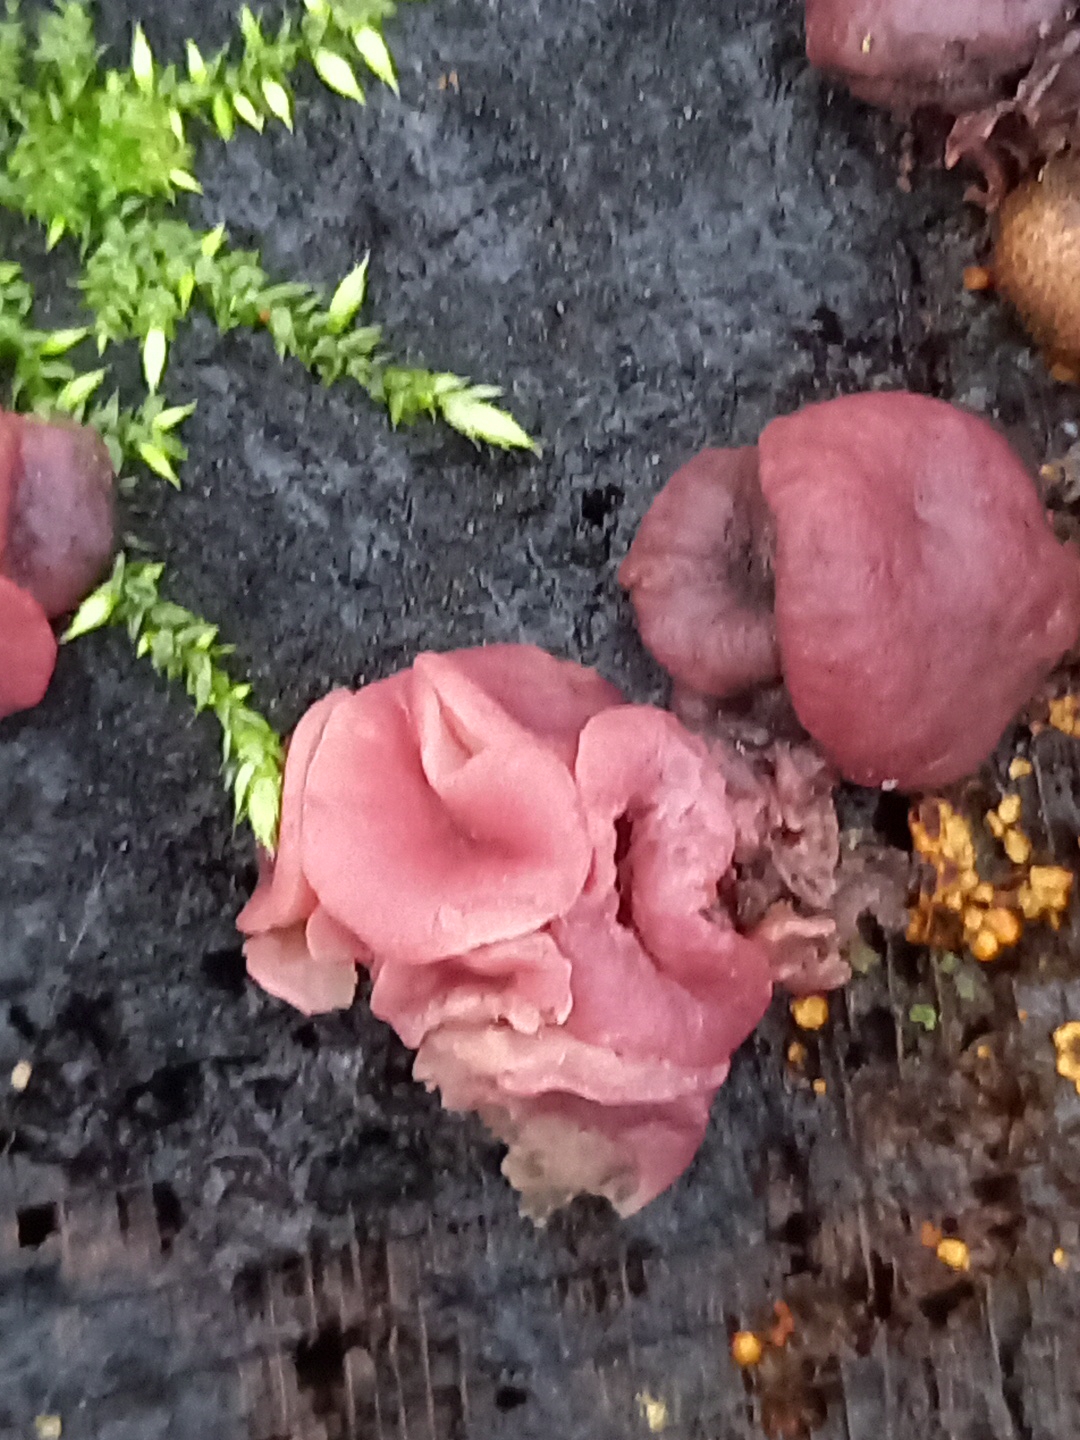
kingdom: Fungi
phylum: Ascomycota
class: Leotiomycetes
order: Helotiales
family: Gelatinodiscaceae
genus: Ascocoryne
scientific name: Ascocoryne cylichnium
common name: stor sejskive
